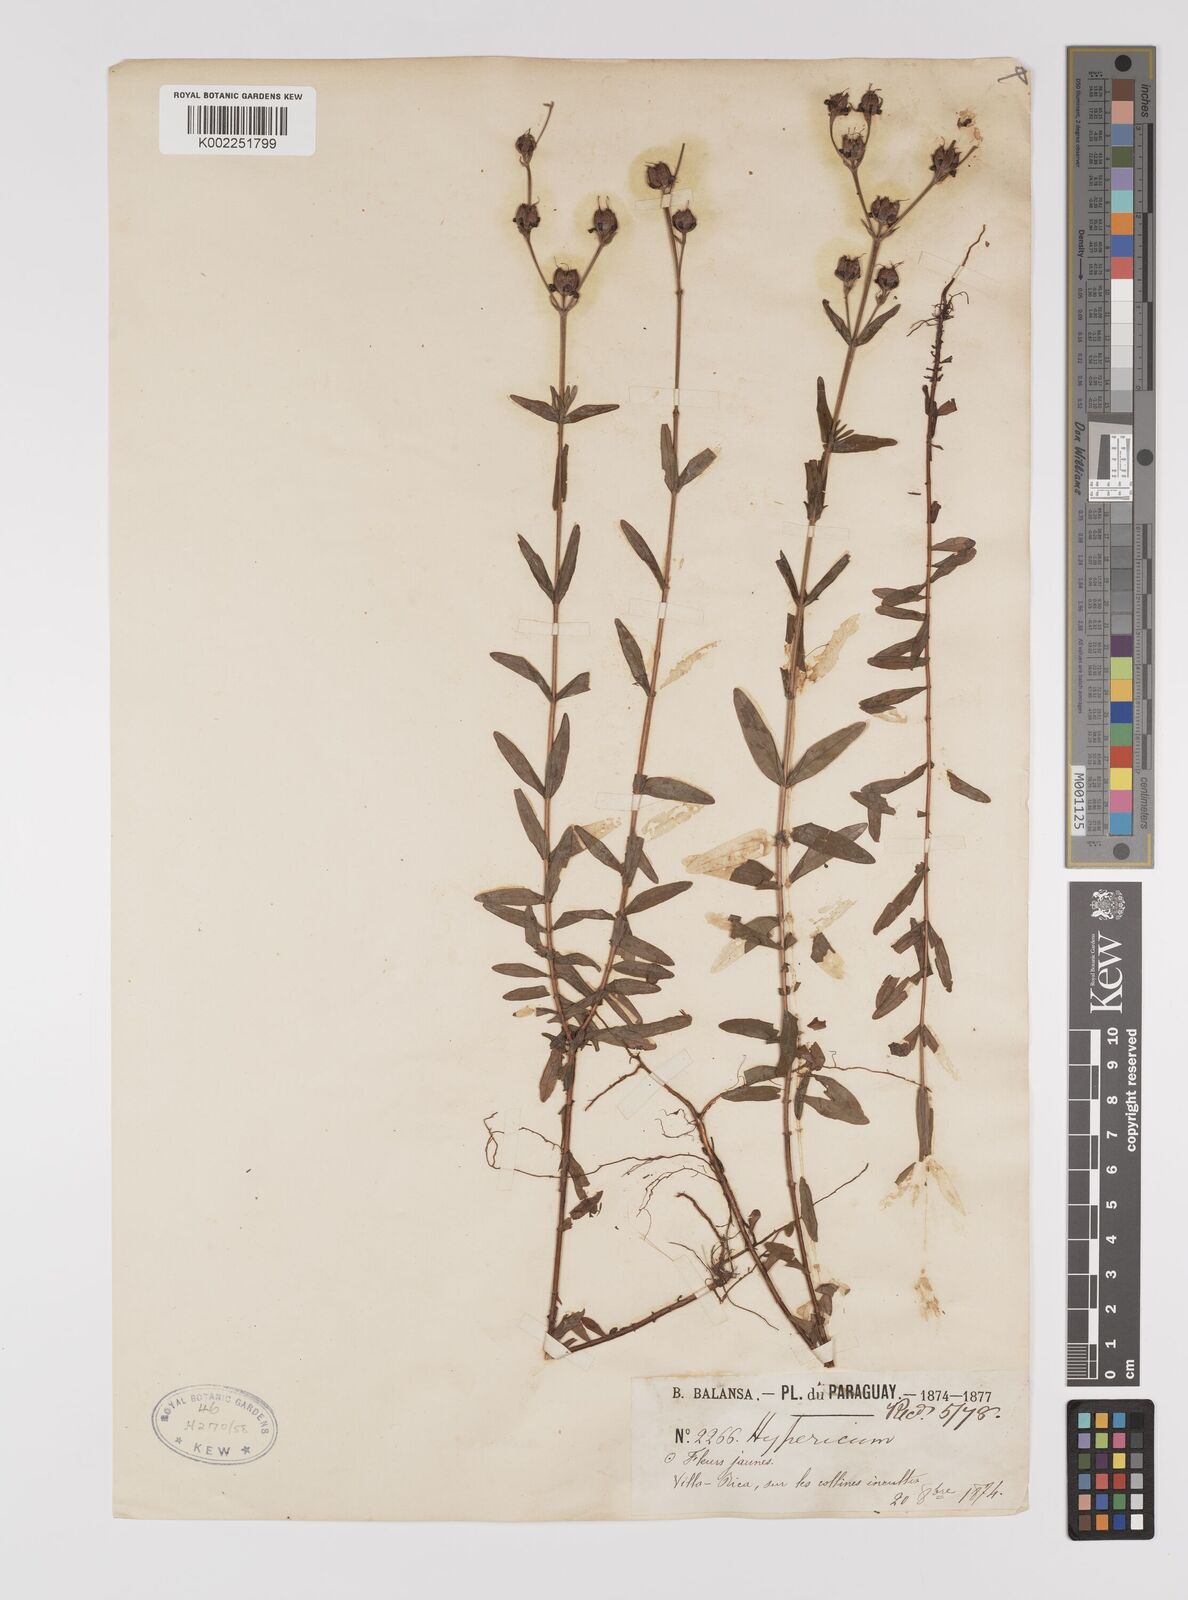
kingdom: Plantae
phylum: Tracheophyta
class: Magnoliopsida
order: Malpighiales
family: Hypericaceae
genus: Hypericum
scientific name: Hypericum
